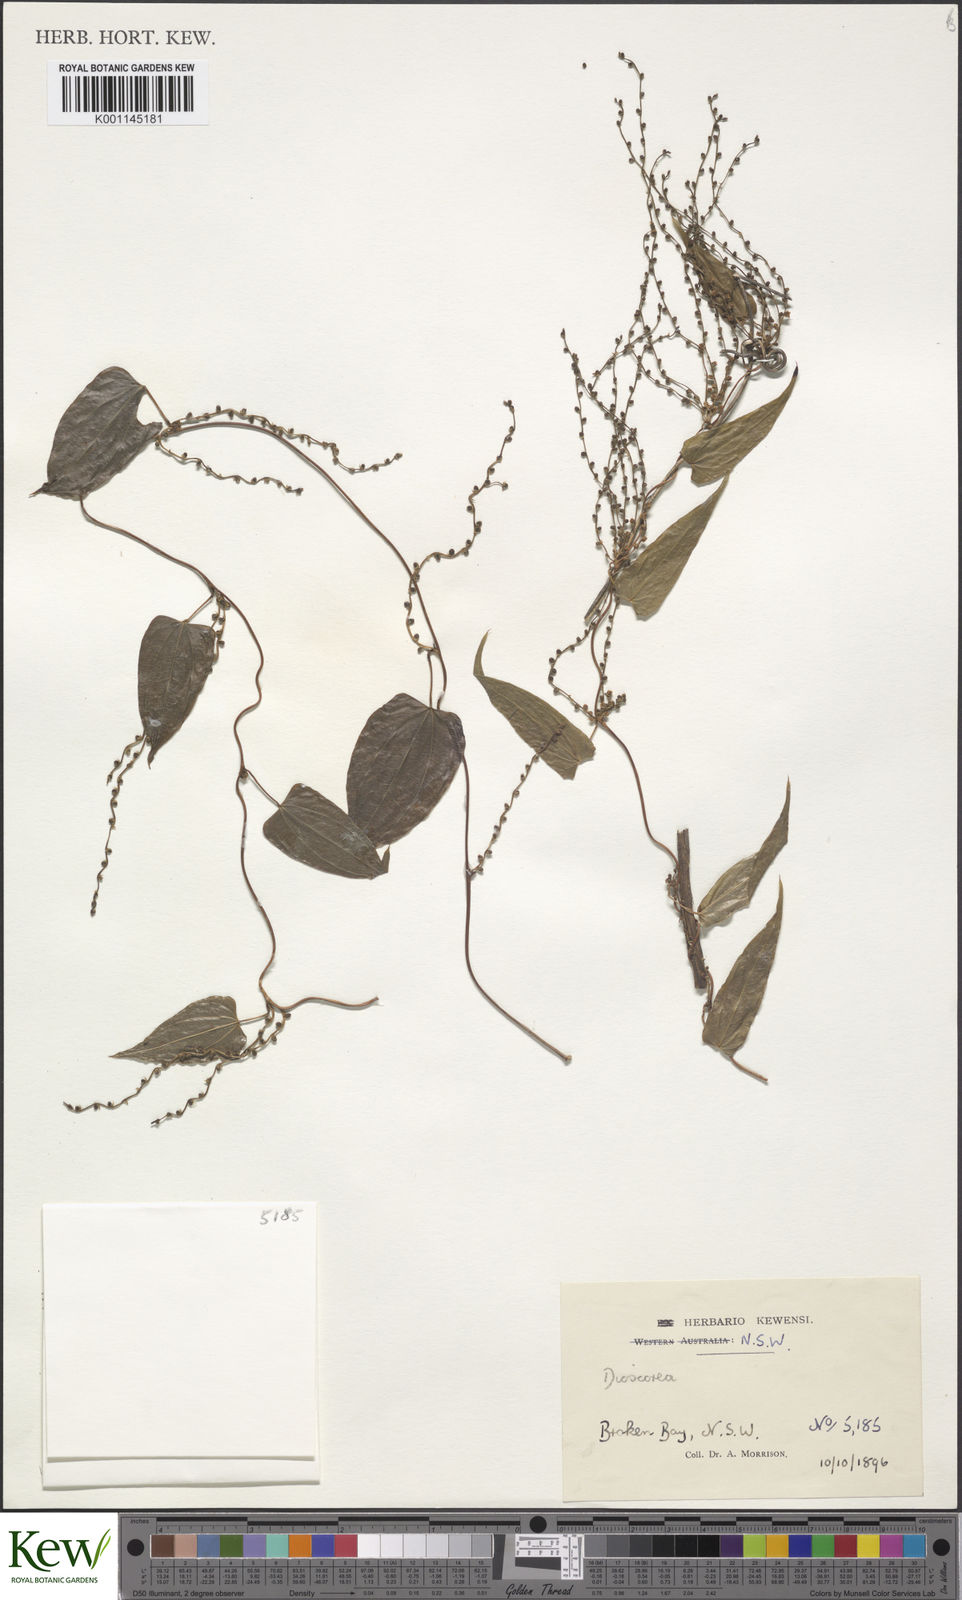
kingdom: Plantae
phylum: Tracheophyta
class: Liliopsida
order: Dioscoreales
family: Dioscoreaceae
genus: Dioscorea
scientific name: Dioscorea
